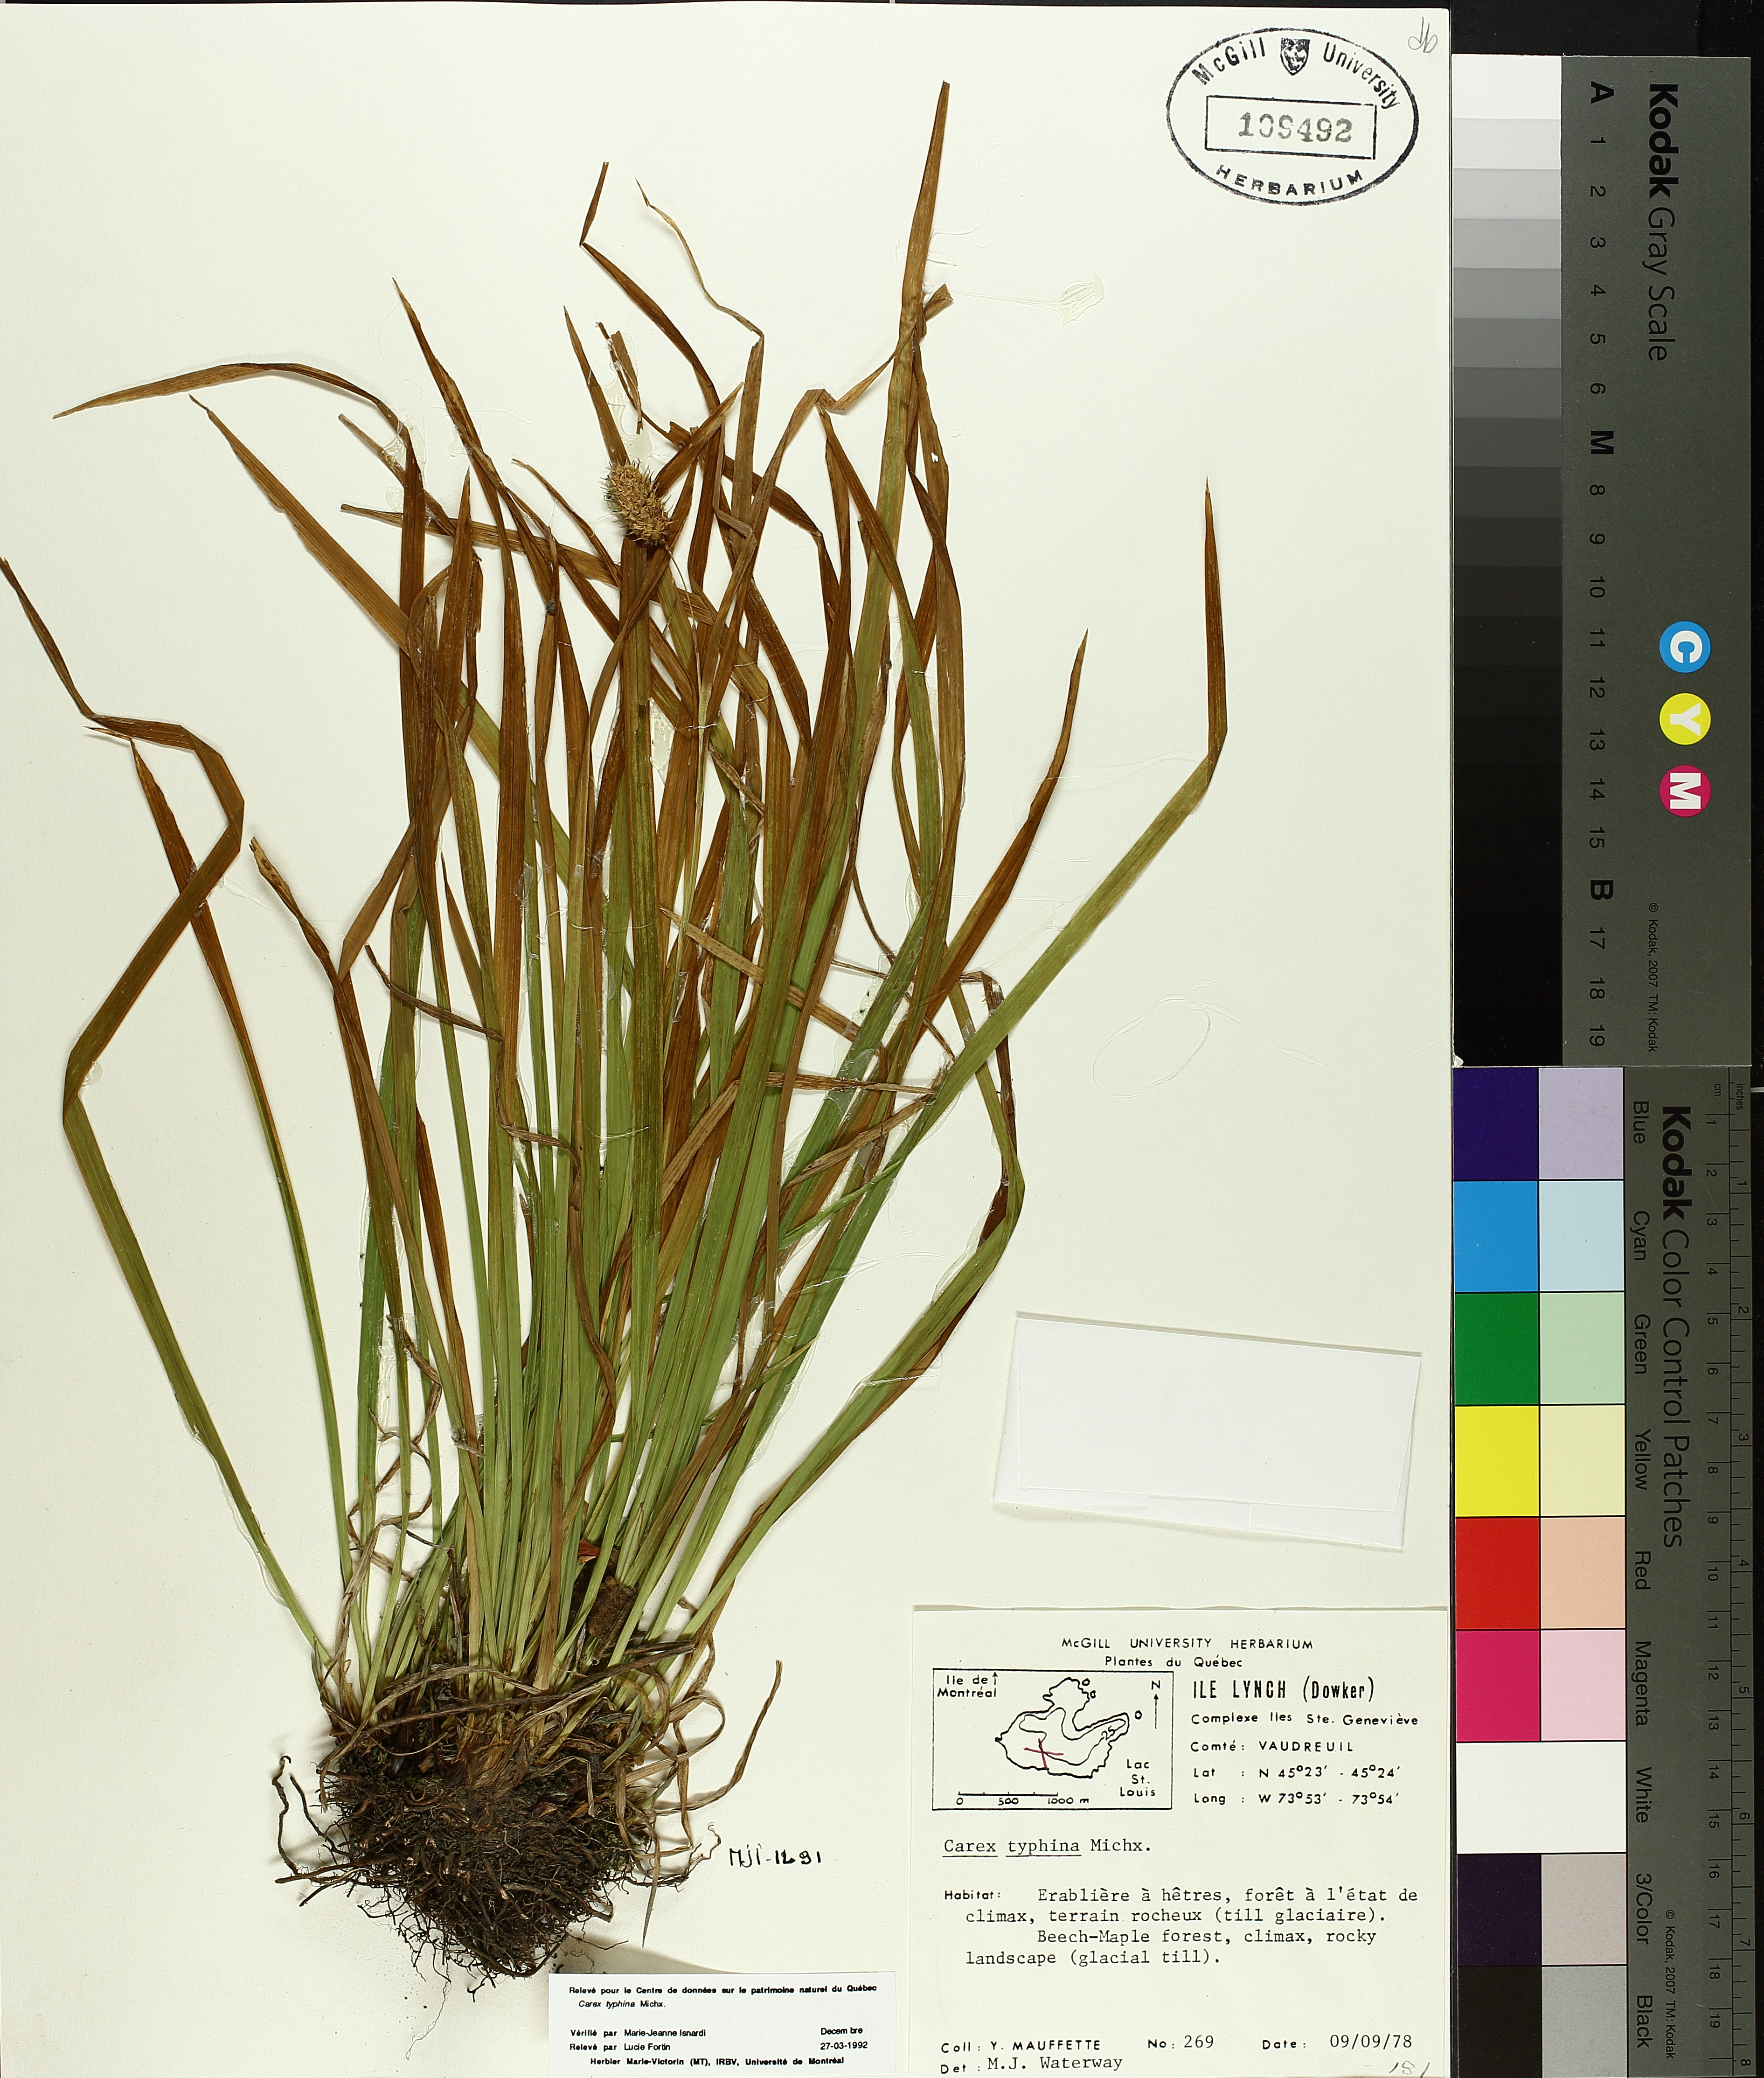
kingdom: Plantae
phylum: Tracheophyta
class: Liliopsida
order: Poales
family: Cyperaceae
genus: Carex
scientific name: Carex typhina
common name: Cattail sedge
